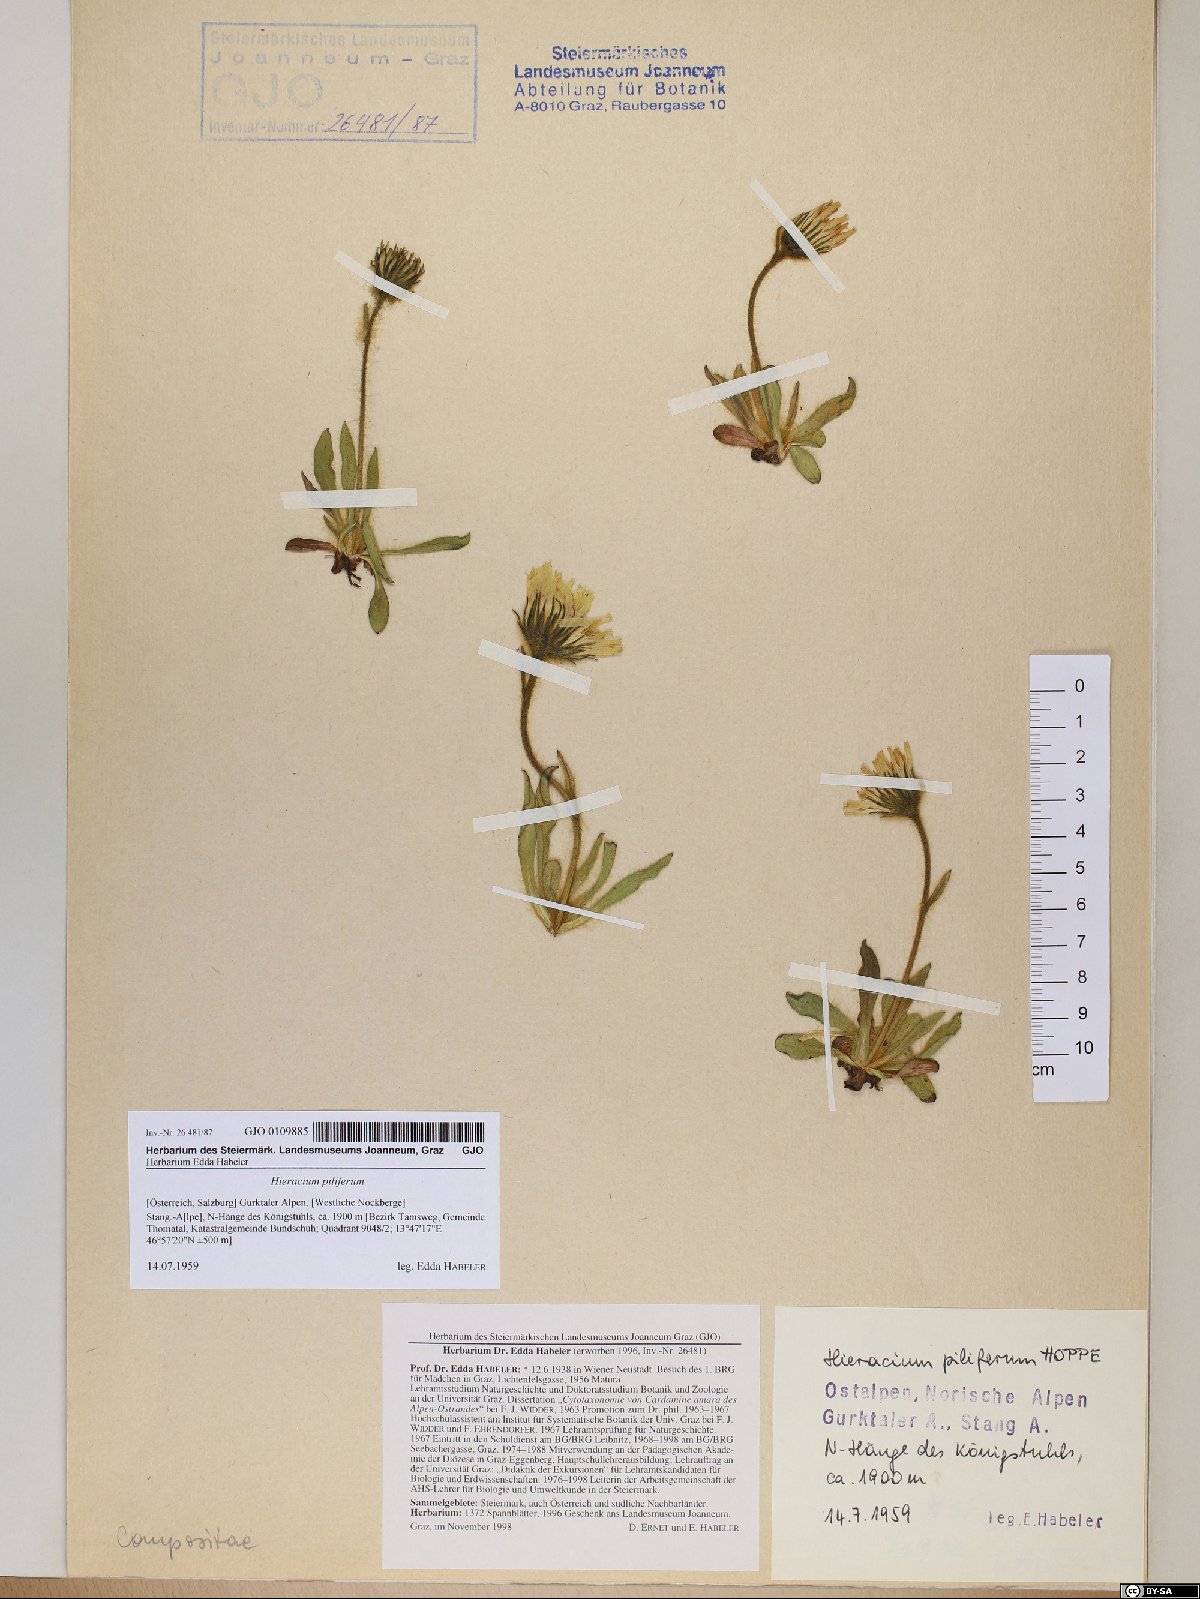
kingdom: Plantae
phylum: Tracheophyta
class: Magnoliopsida
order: Asterales
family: Asteraceae
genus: Hieracium
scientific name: Hieracium piliferum
